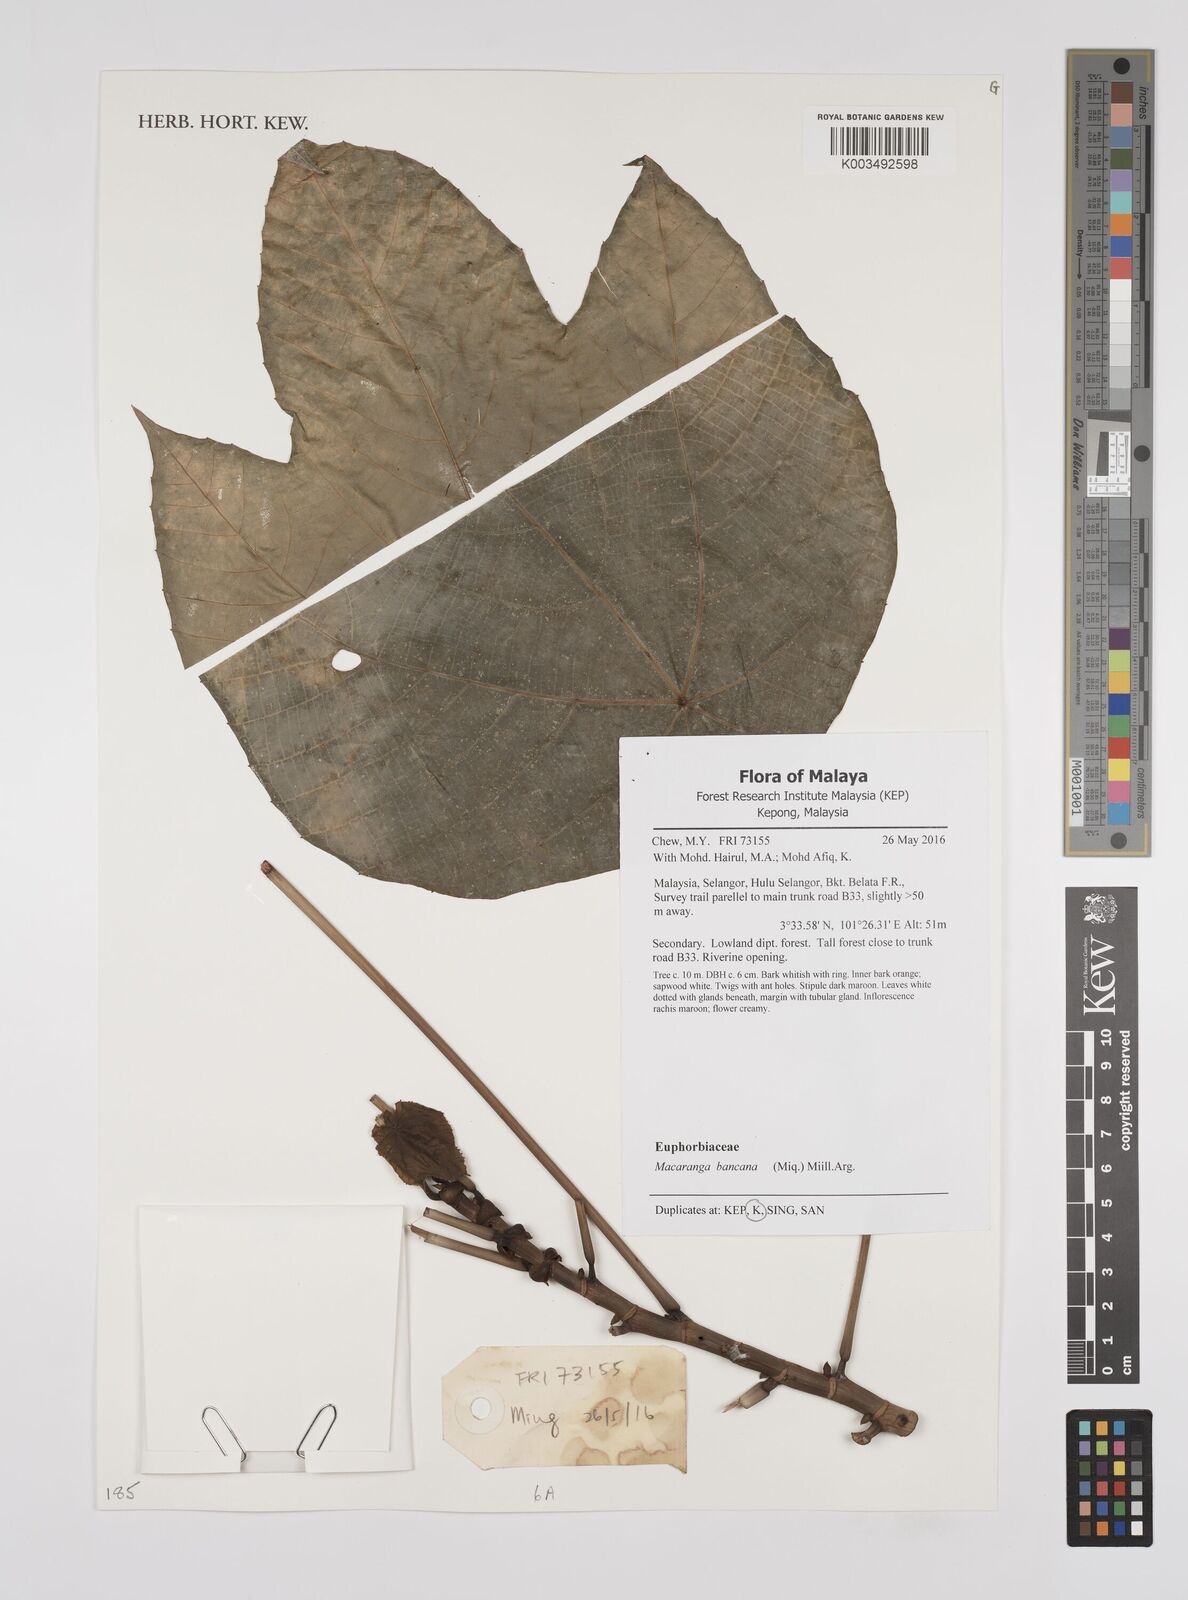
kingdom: Plantae
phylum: Tracheophyta
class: Magnoliopsida
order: Malpighiales
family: Euphorbiaceae
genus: Macaranga
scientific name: Macaranga bancana
